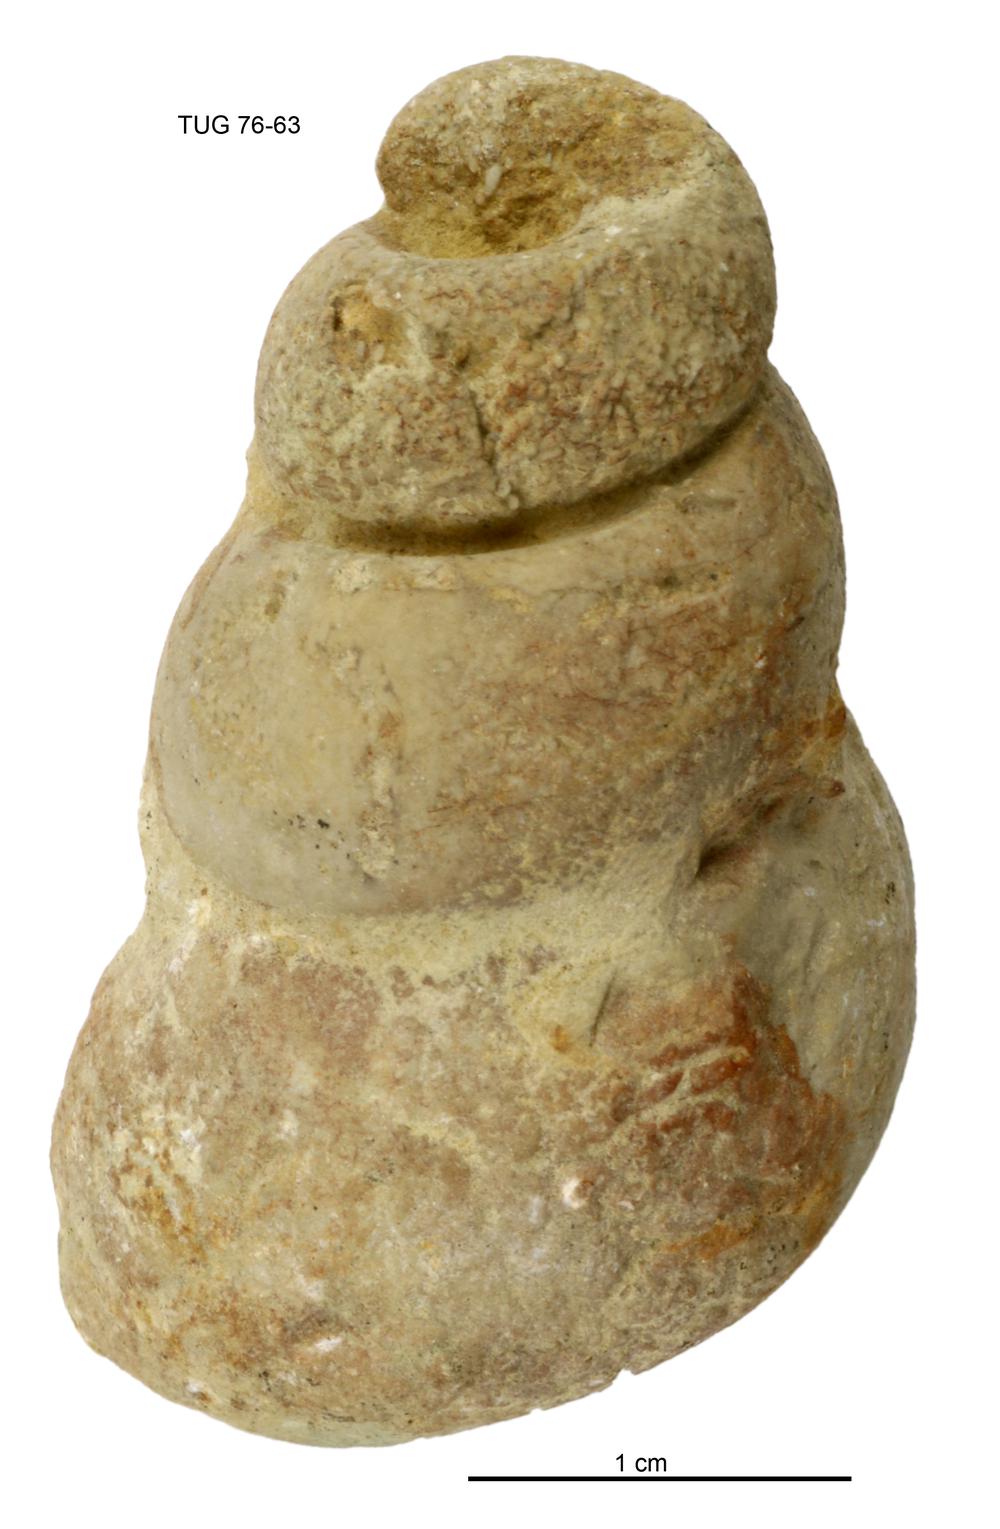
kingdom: Animalia
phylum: Mollusca
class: Gastropoda
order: Pleurotomariida
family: Murchisoniidae
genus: Murchisonia
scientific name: Murchisonia insignis
